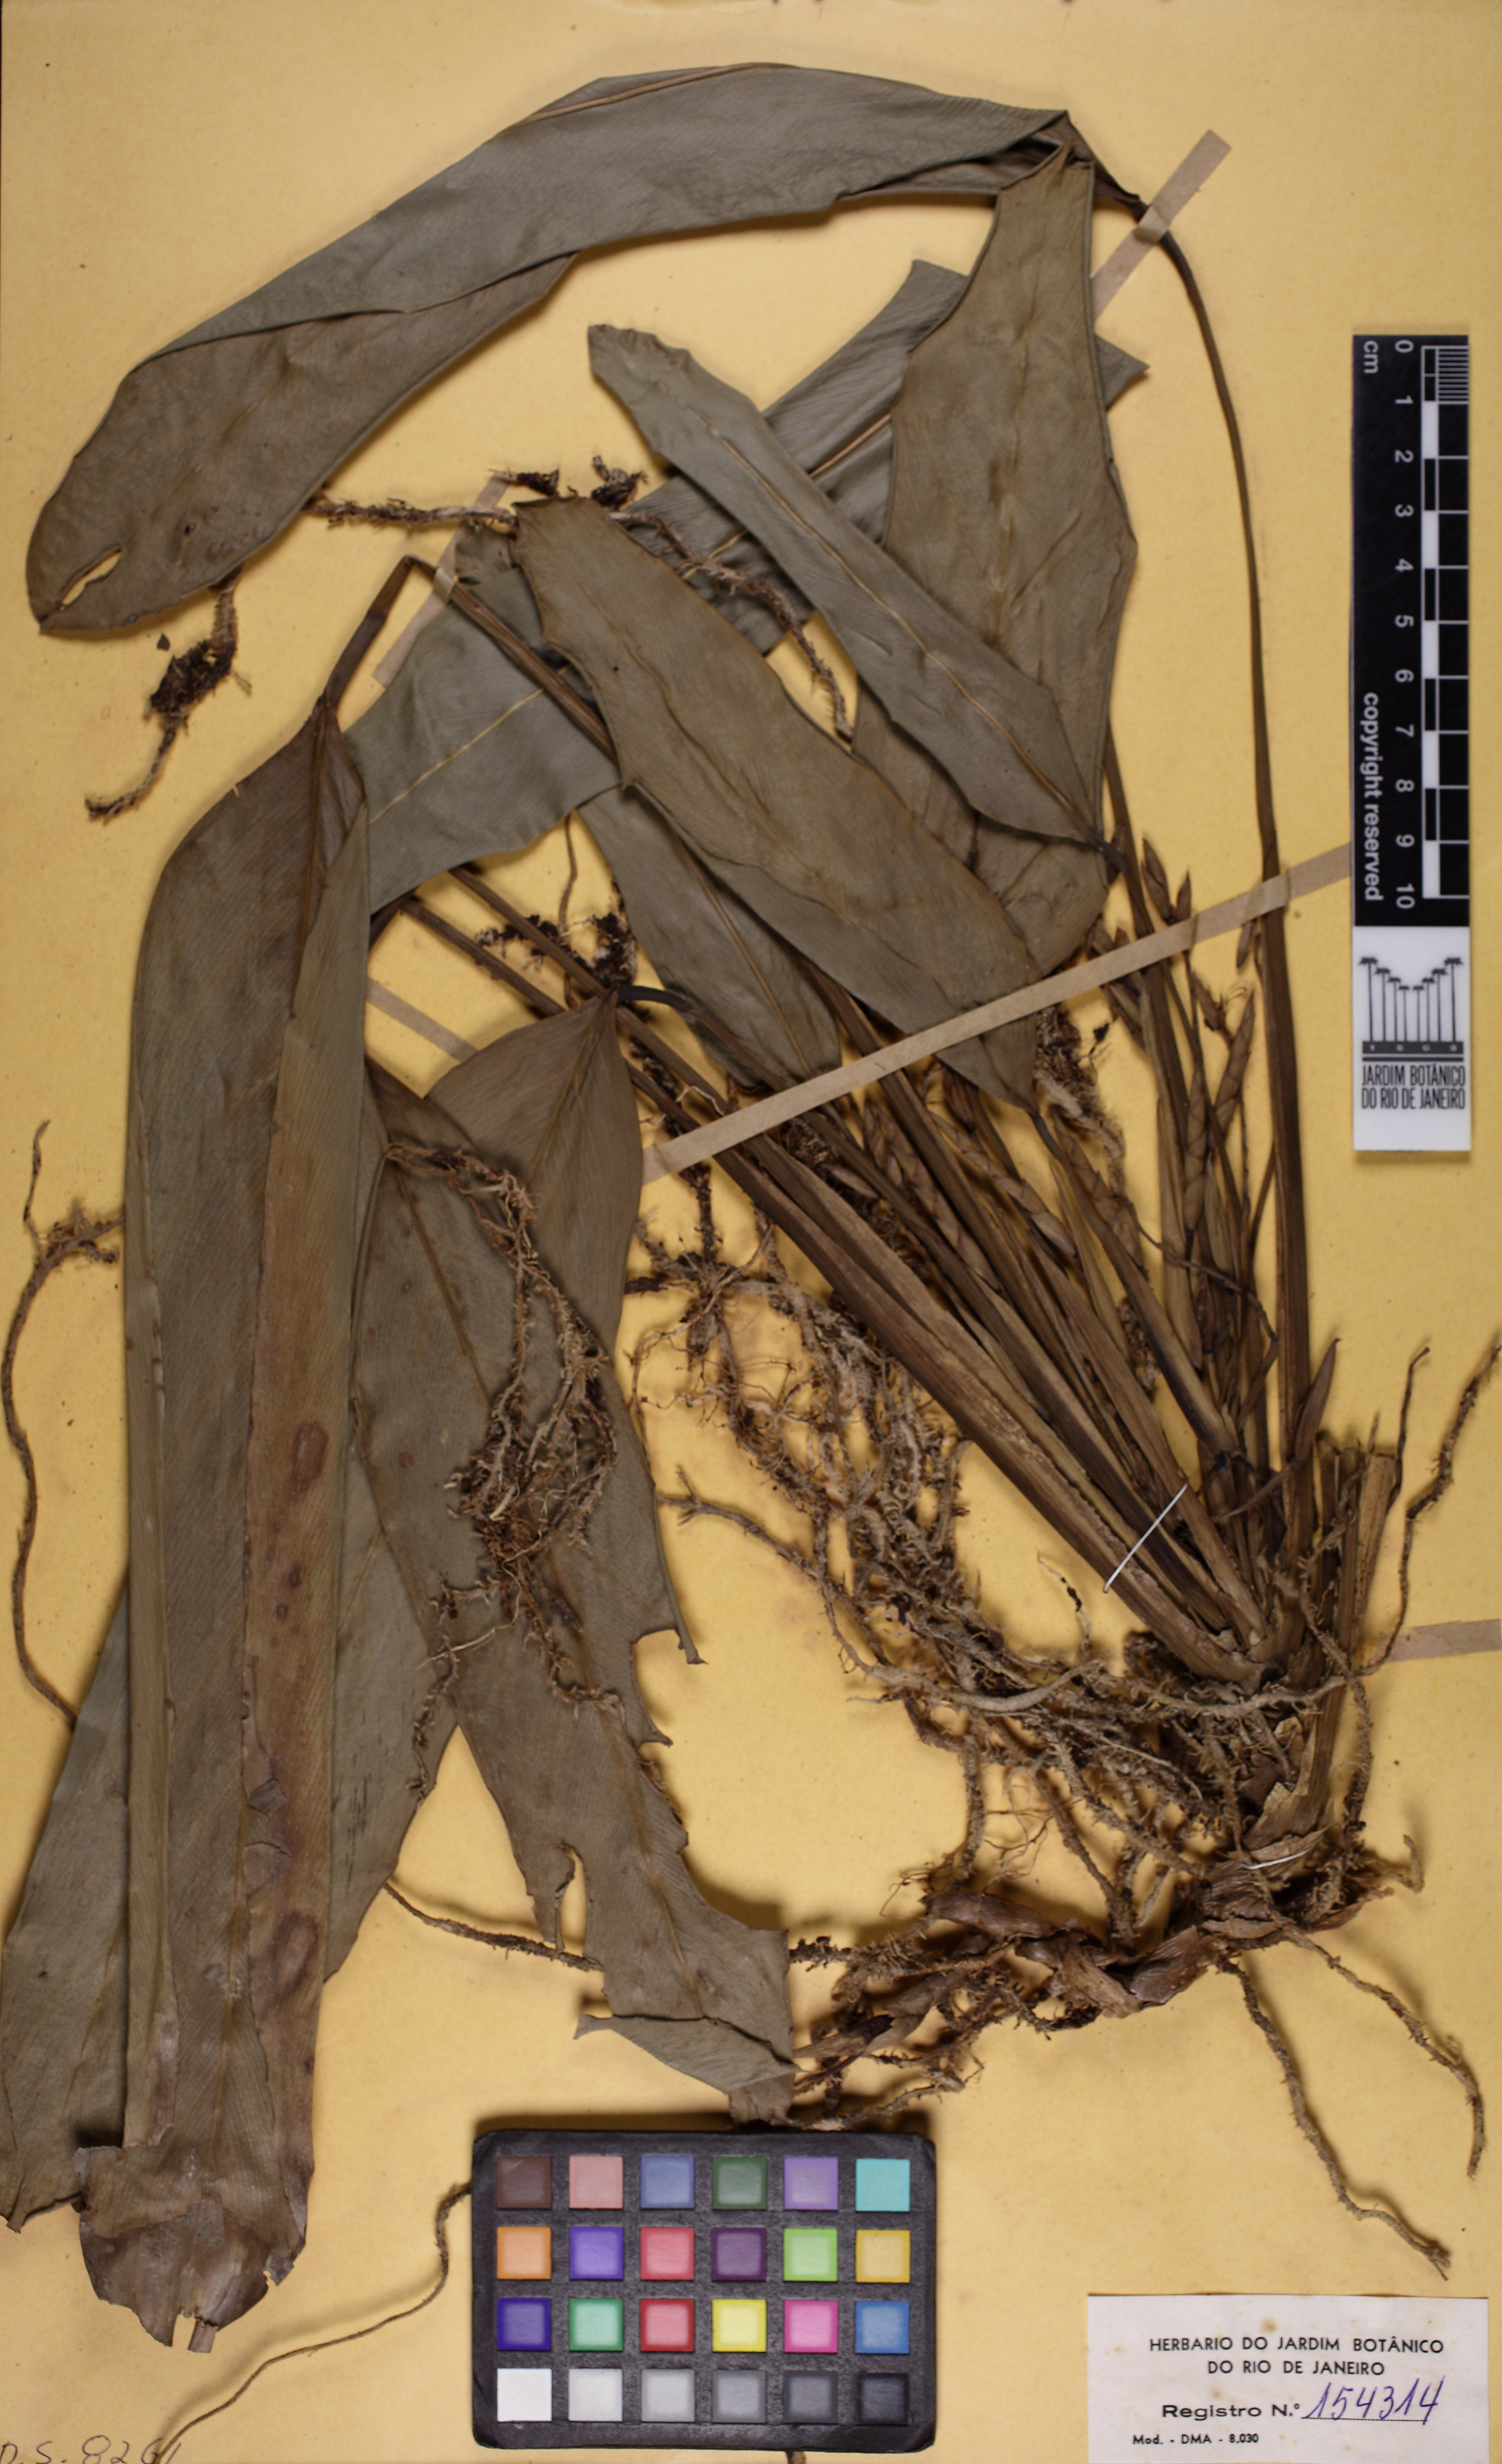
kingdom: Plantae
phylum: Tracheophyta
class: Liliopsida
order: Zingiberales
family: Marantaceae
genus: Saranthe
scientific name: Saranthe klotzschiana
